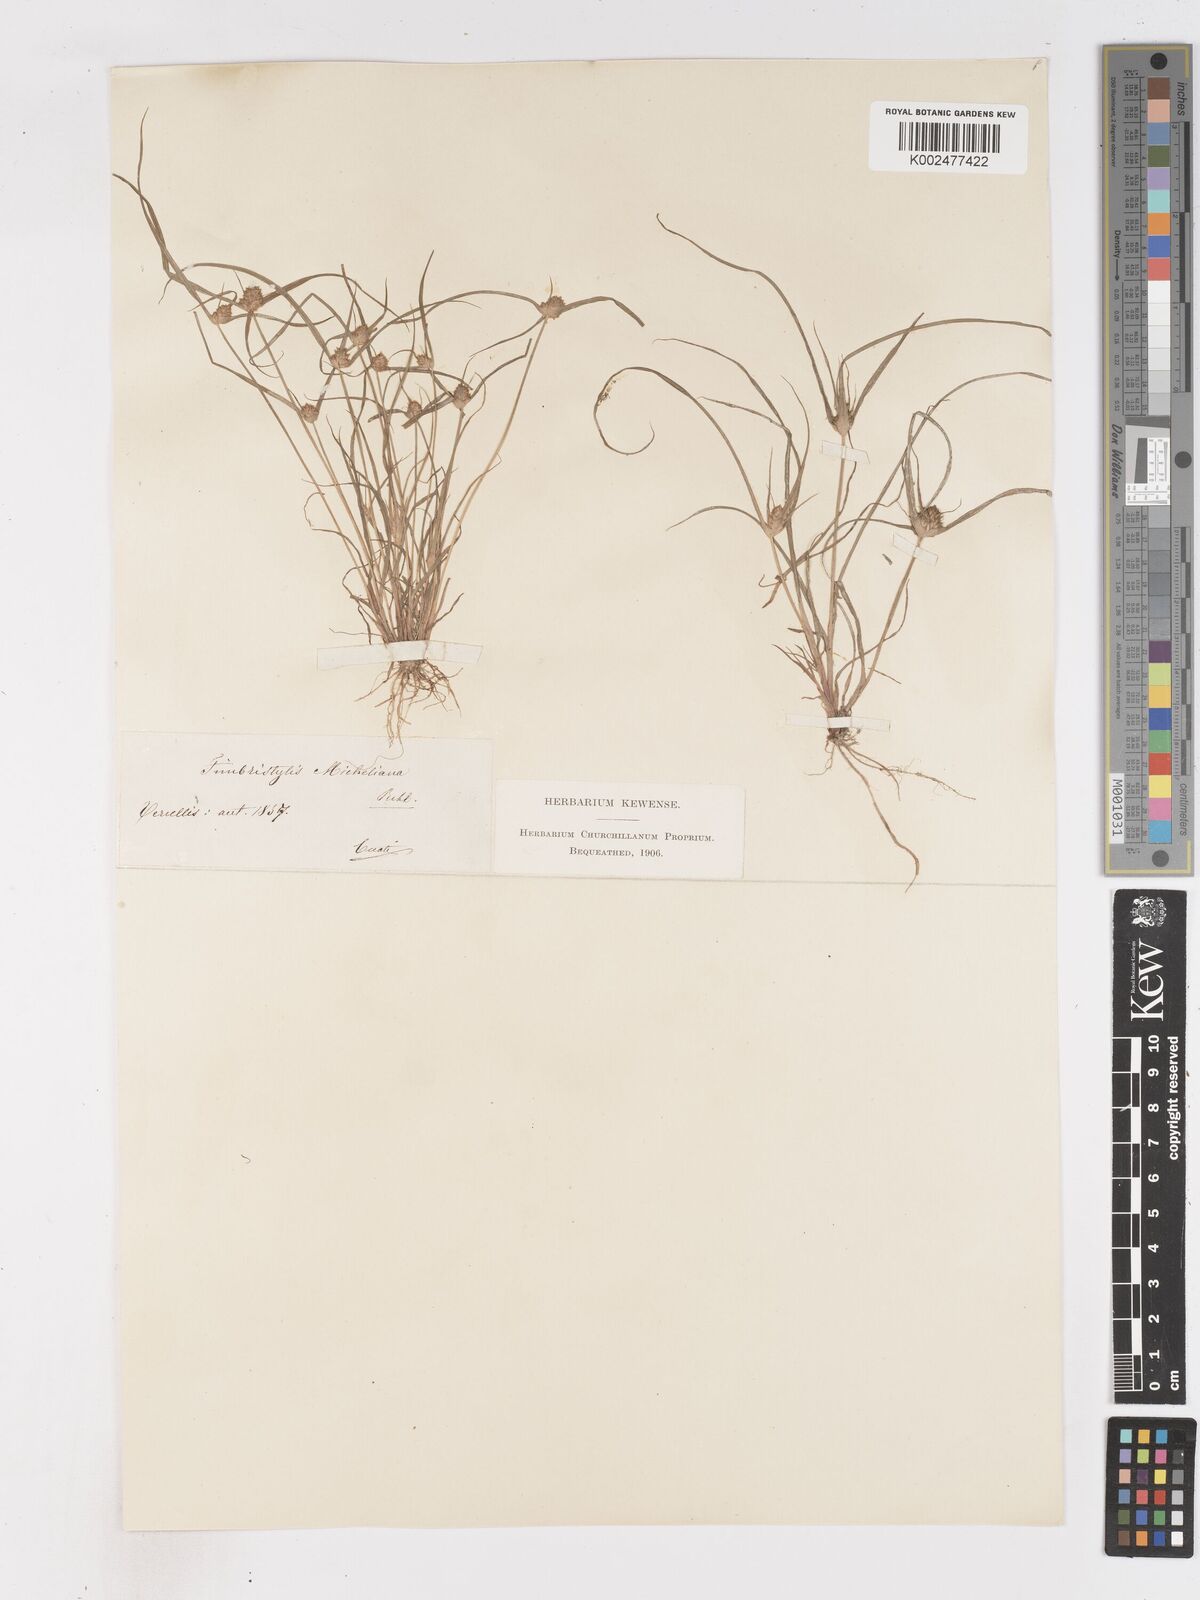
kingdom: Plantae
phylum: Tracheophyta
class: Liliopsida
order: Poales
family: Cyperaceae
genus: Cyperus
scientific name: Cyperus michelianus
